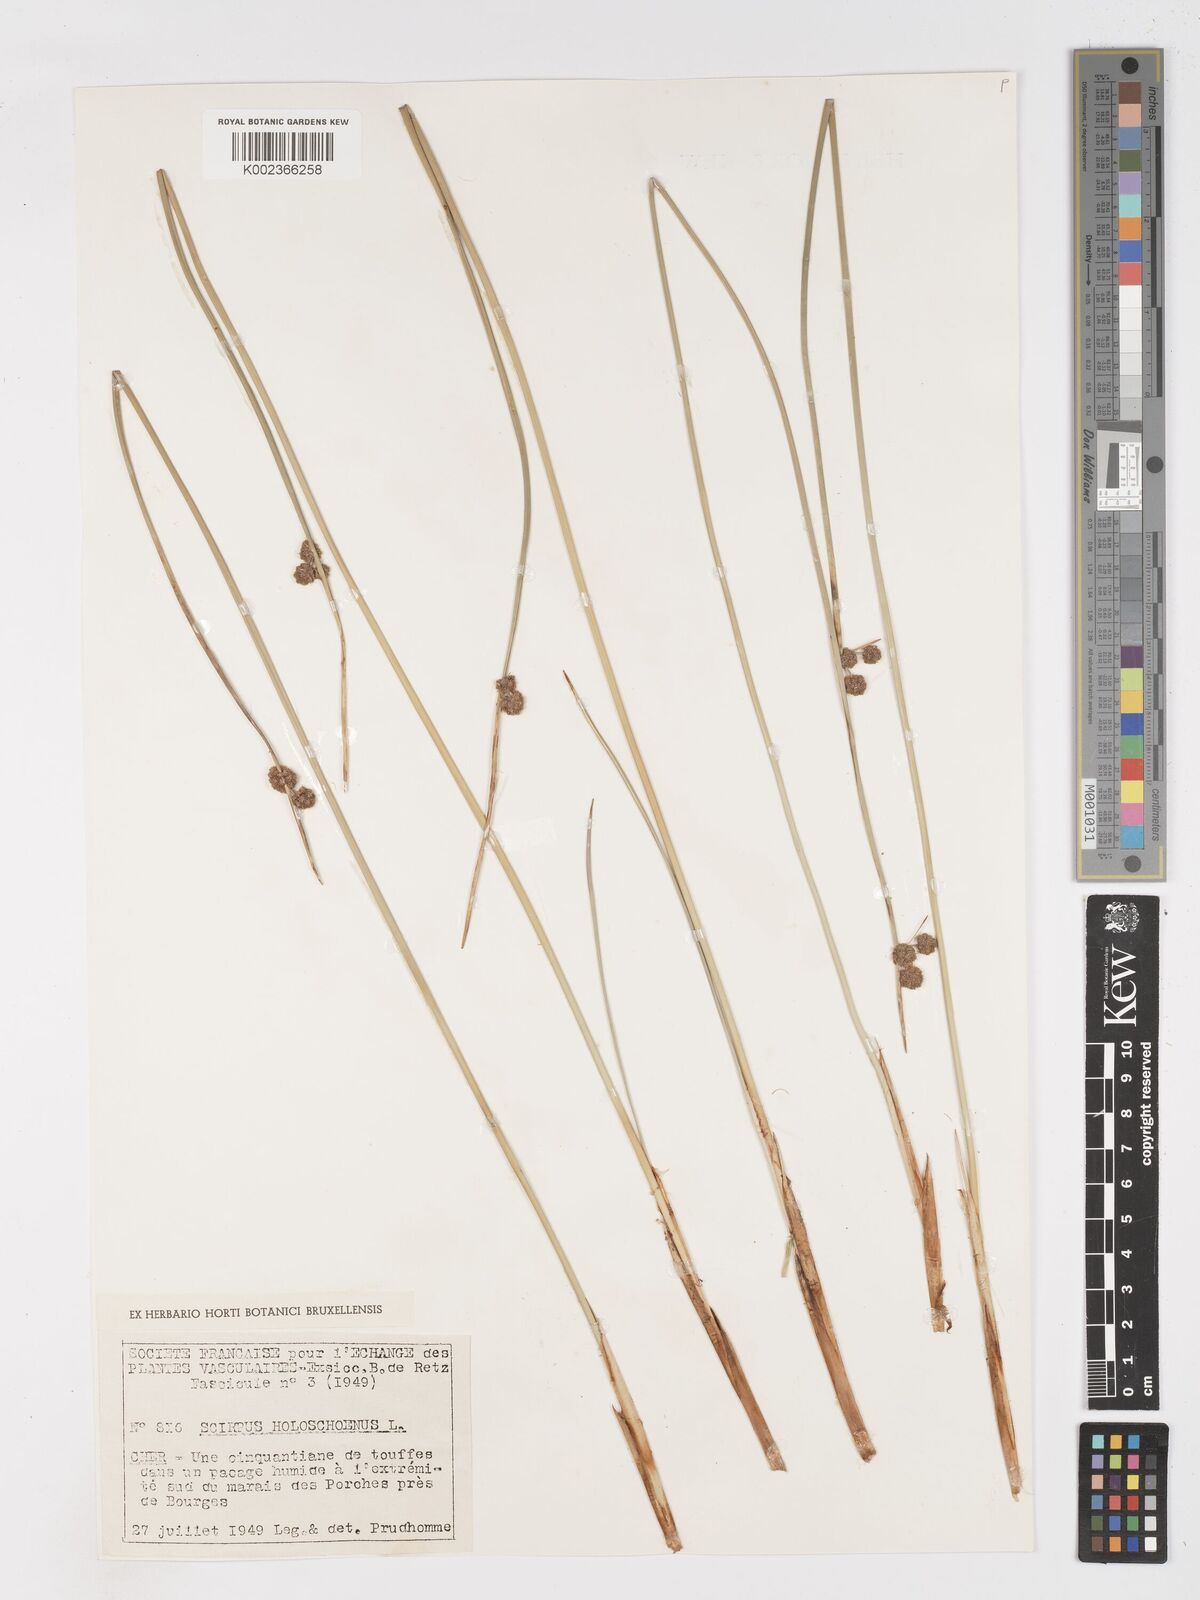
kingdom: Plantae
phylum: Tracheophyta
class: Liliopsida
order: Poales
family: Cyperaceae
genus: Scirpoides
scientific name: Scirpoides holoschoenus
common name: Round-headed club-rush
